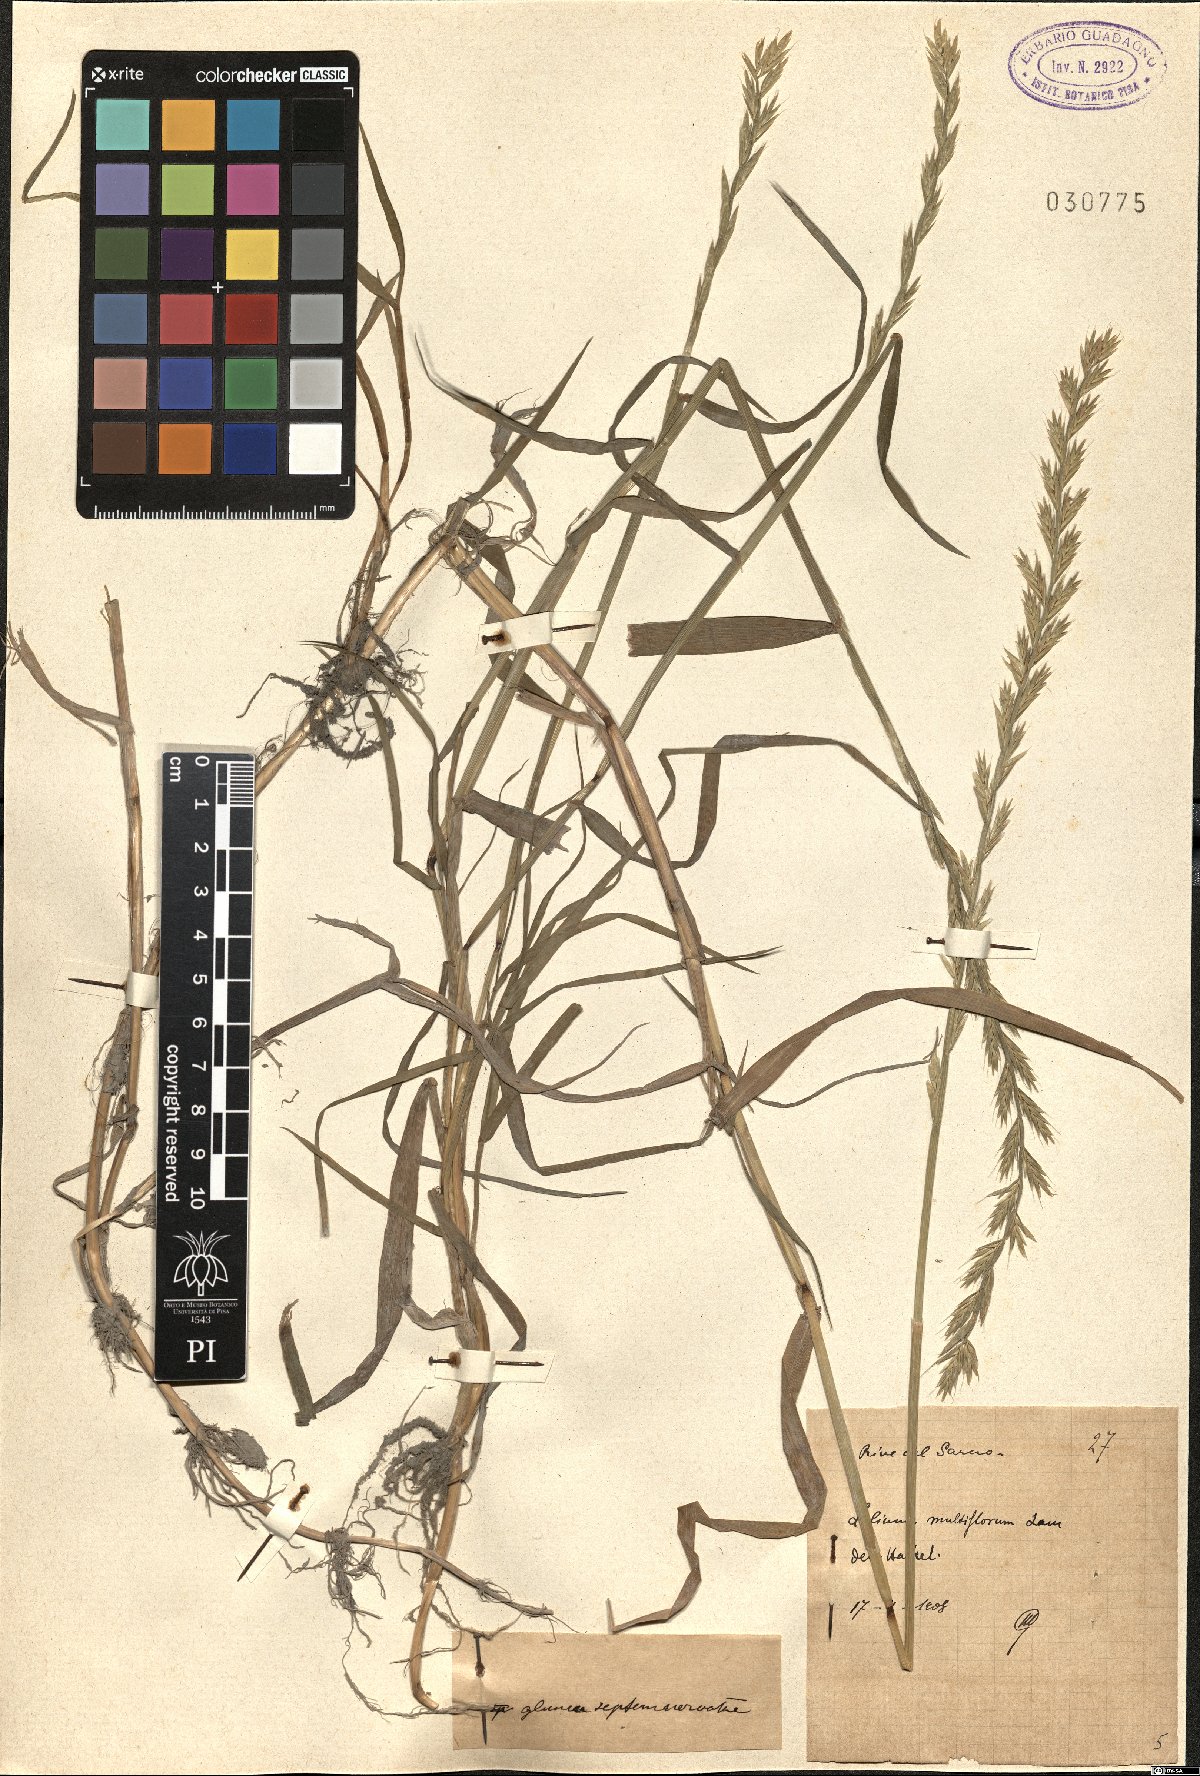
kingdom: Plantae
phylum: Tracheophyta
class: Liliopsida
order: Poales
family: Poaceae
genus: Lolium
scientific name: Lolium multiflorum
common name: Annual ryegrass
